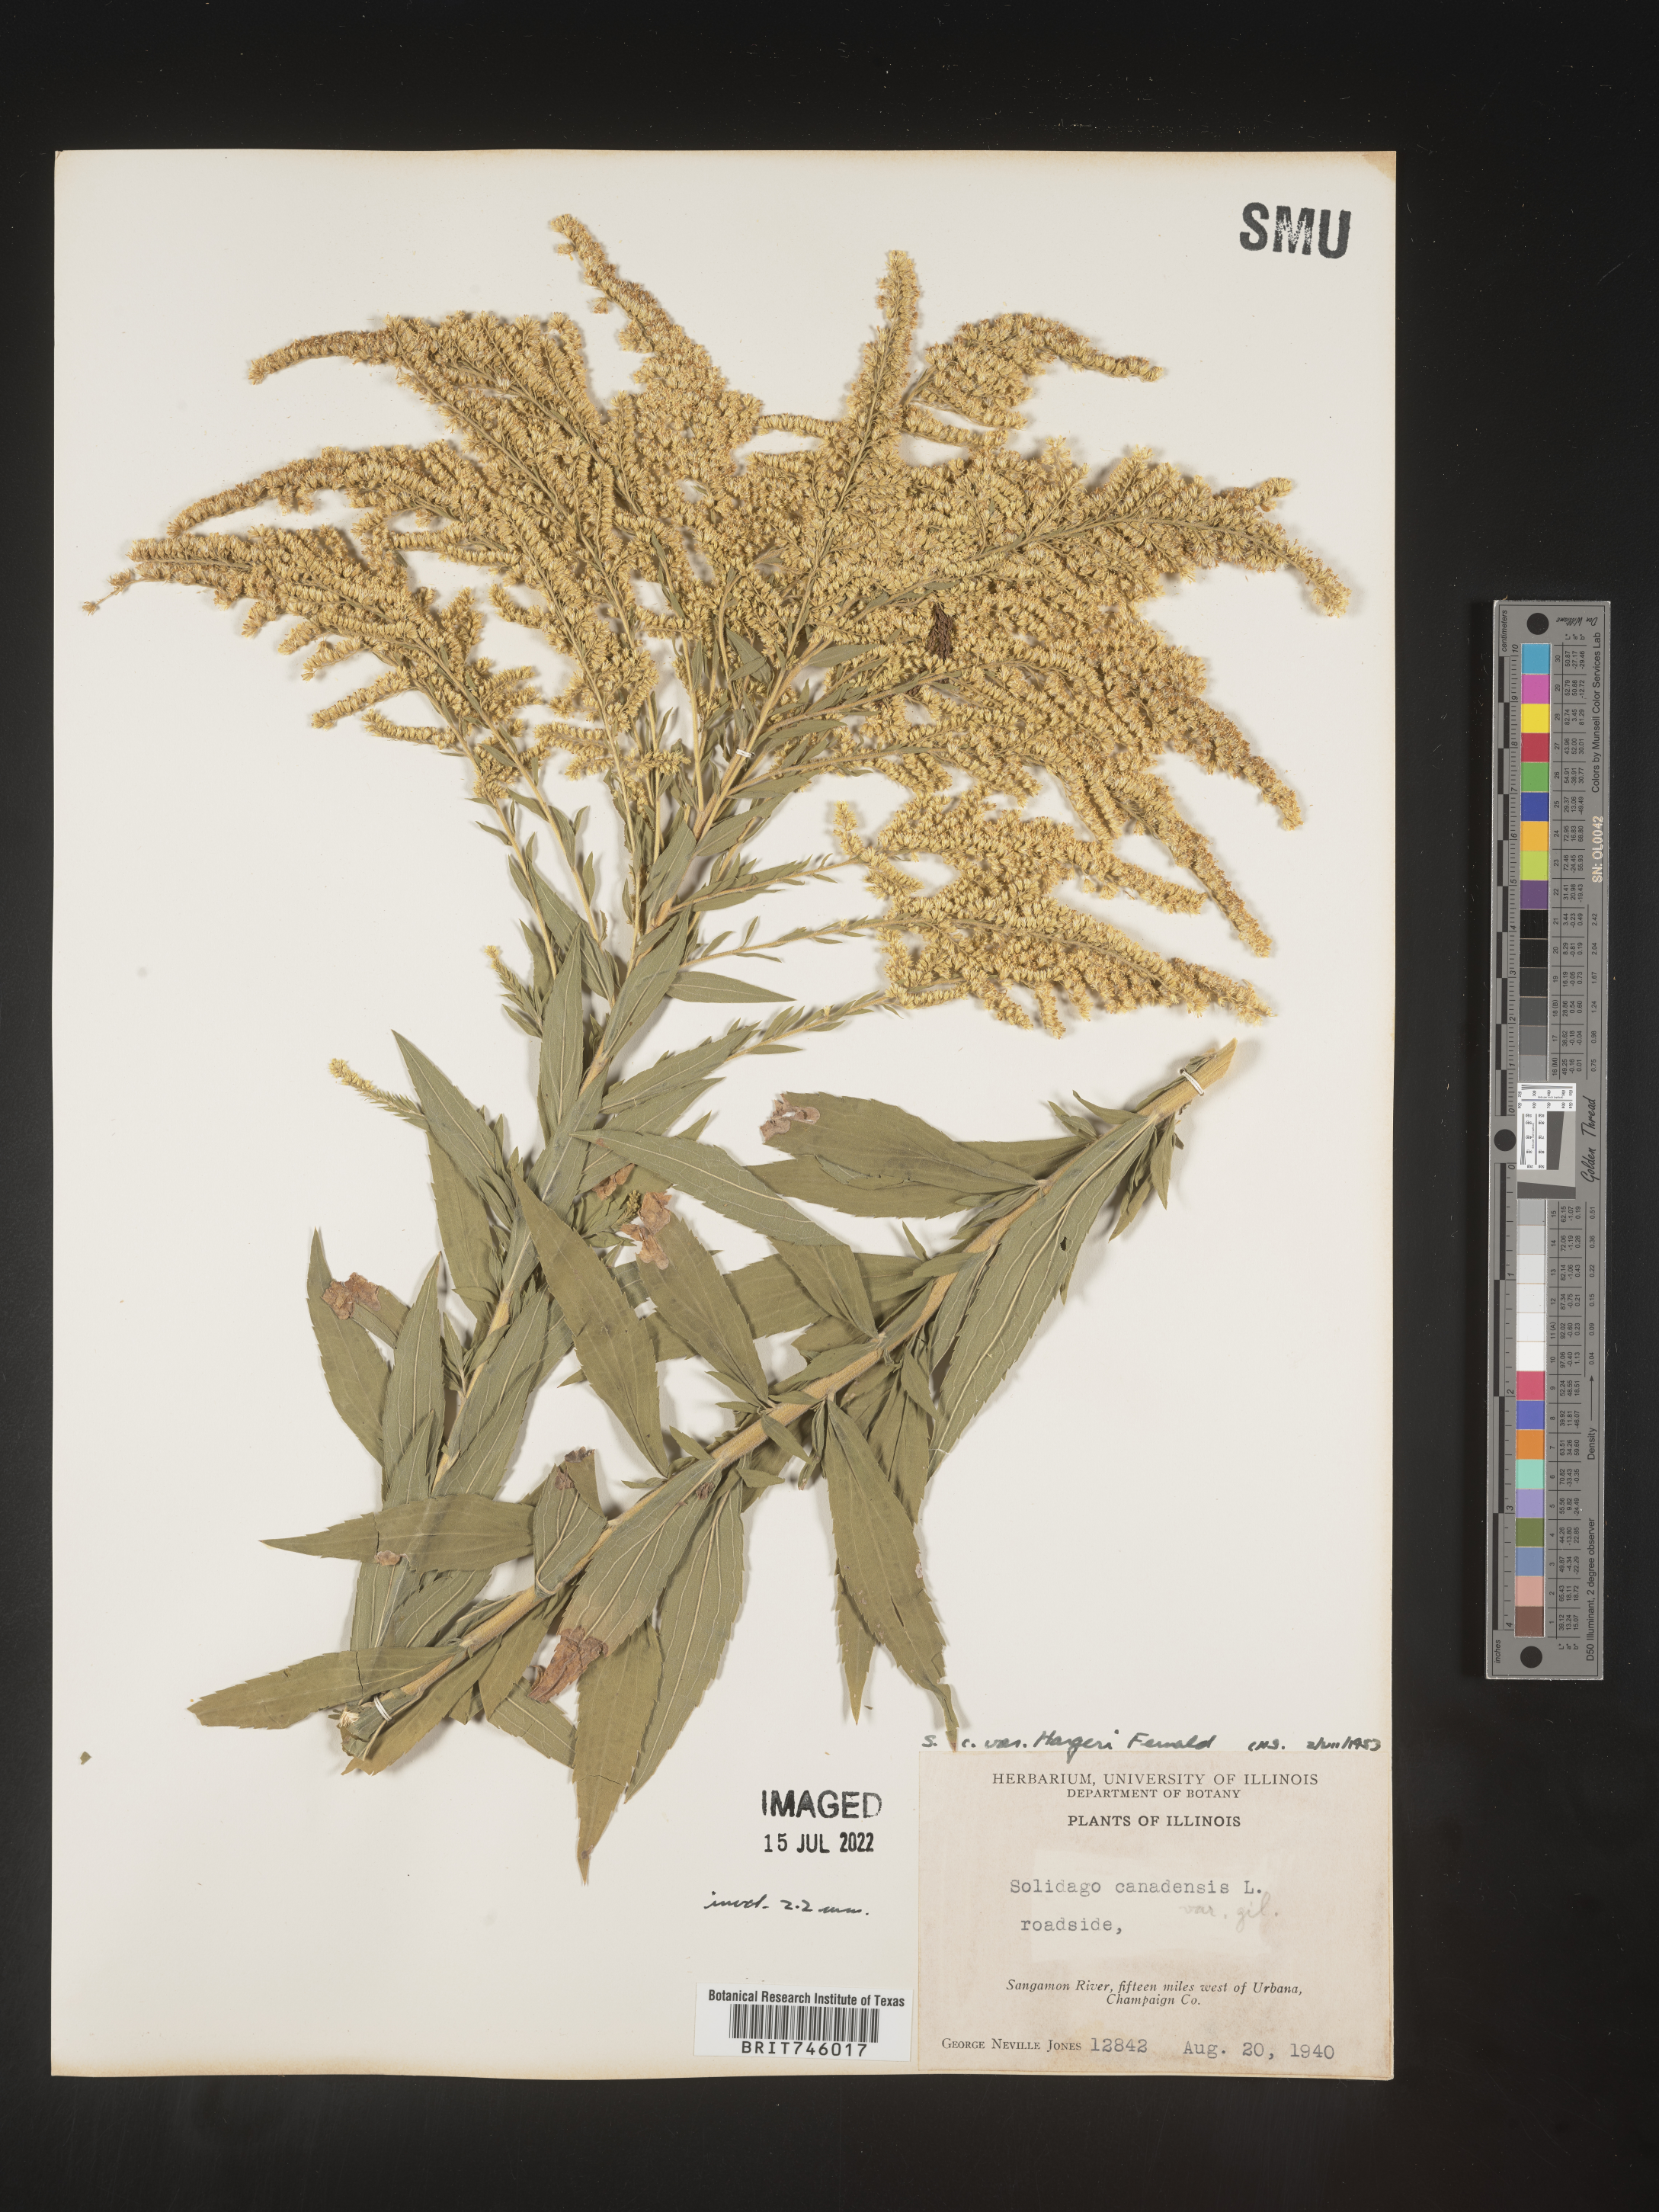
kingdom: Plantae
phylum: Tracheophyta
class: Magnoliopsida
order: Asterales
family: Asteraceae
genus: Solidago
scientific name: Solidago canadensis
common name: Canada goldenrod
